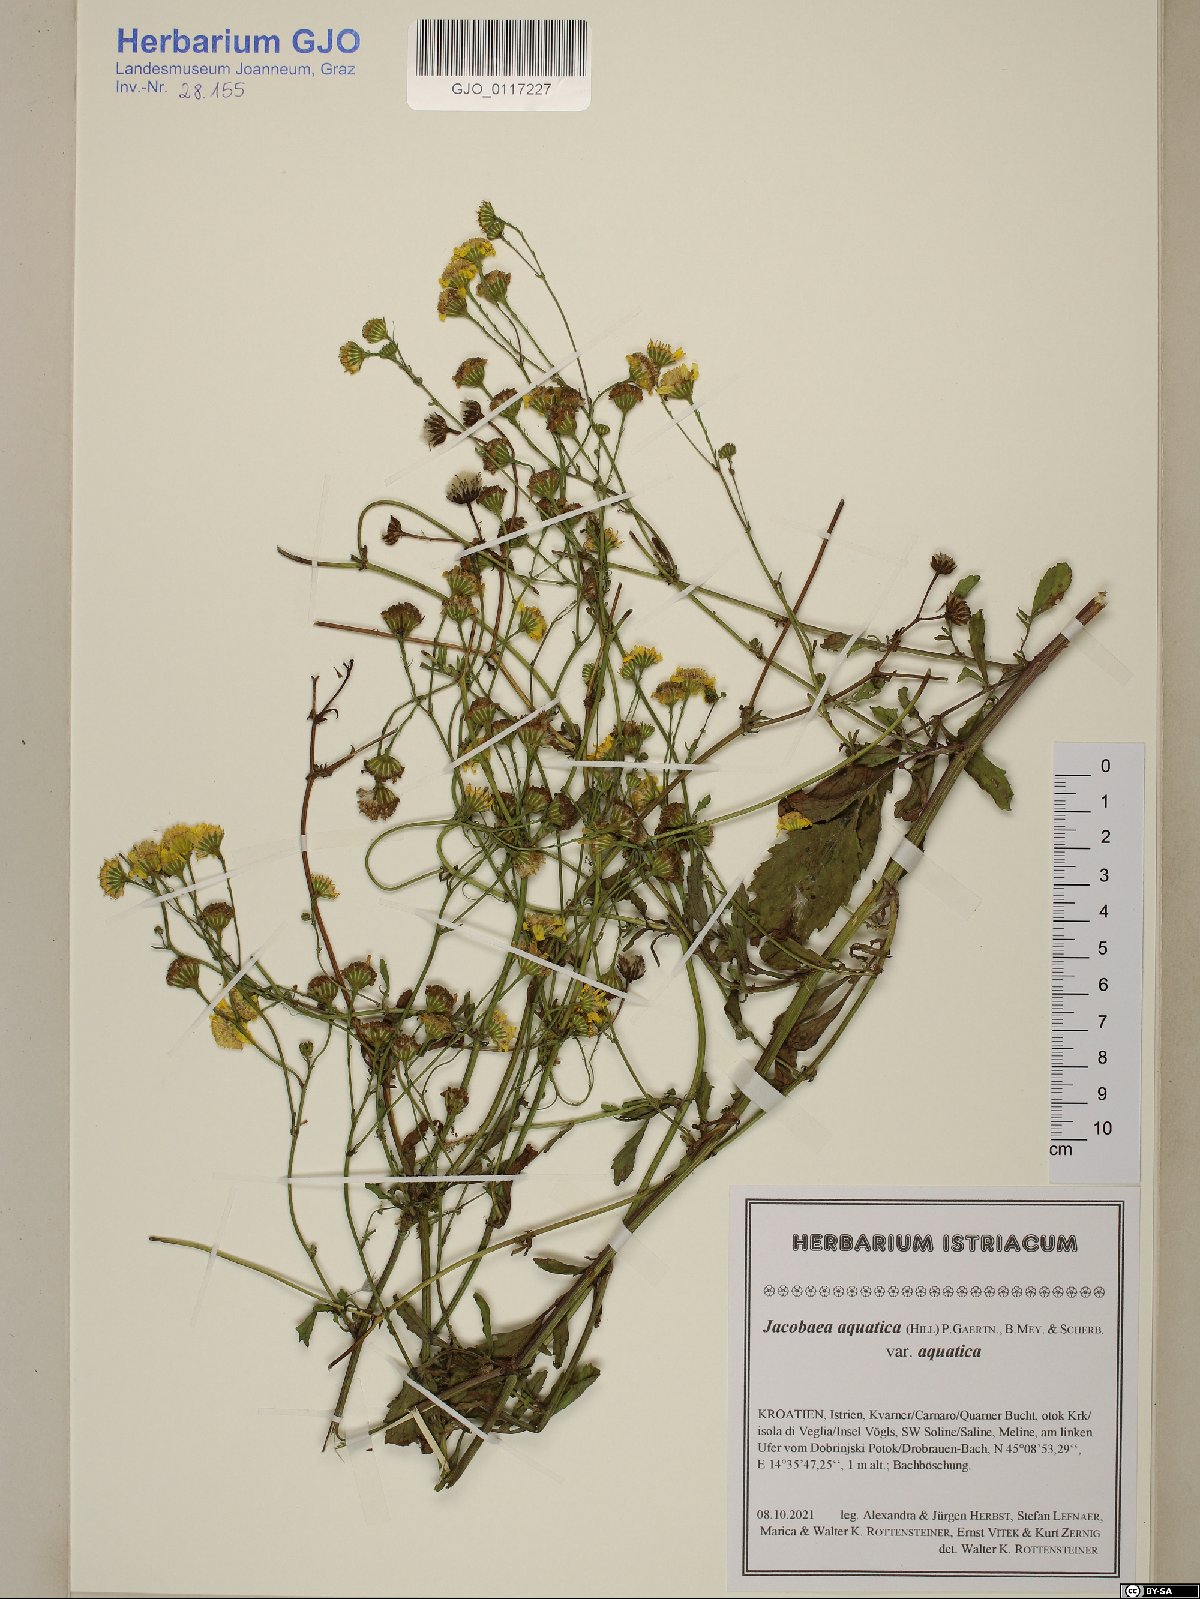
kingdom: Plantae
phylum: Tracheophyta
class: Magnoliopsida
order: Asterales
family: Asteraceae
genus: Jacobaea
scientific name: Jacobaea aquatica
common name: Water ragwort
